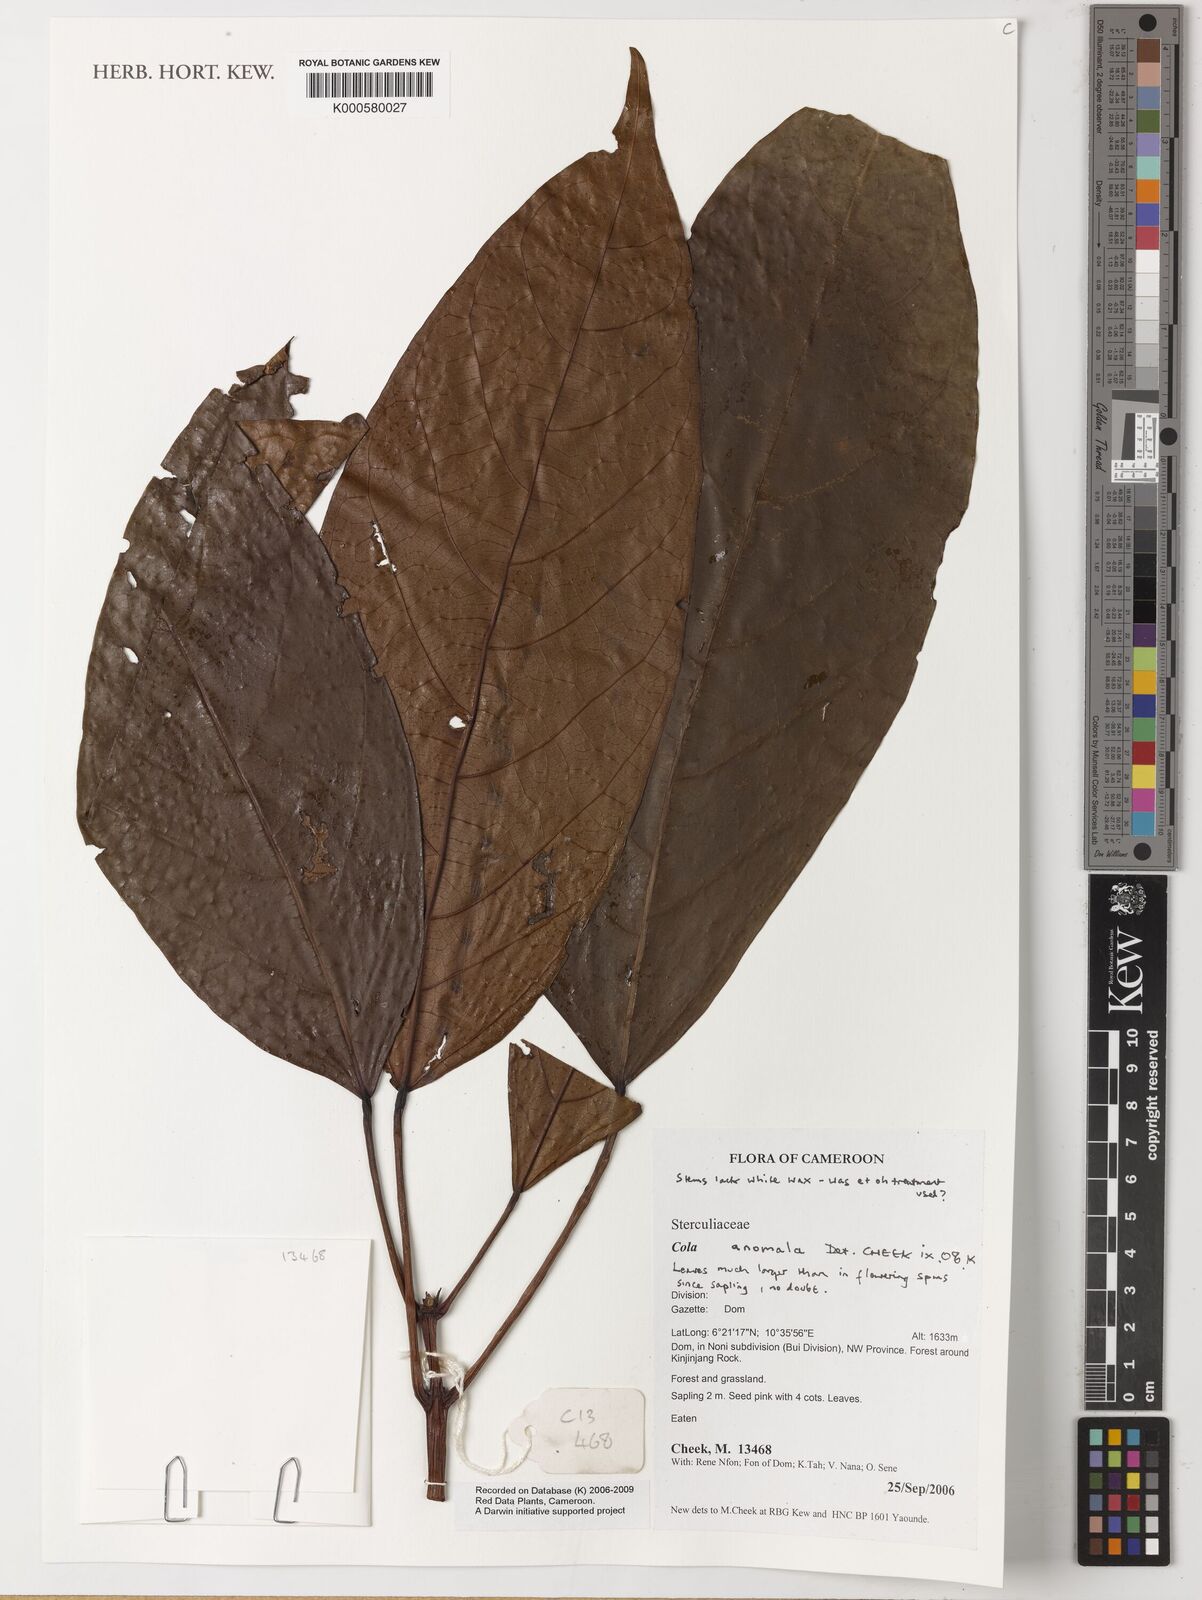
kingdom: Plantae
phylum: Tracheophyta
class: Magnoliopsida
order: Malvales
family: Malvaceae
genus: Cola
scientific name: Cola anomala
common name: Bamenda cola
